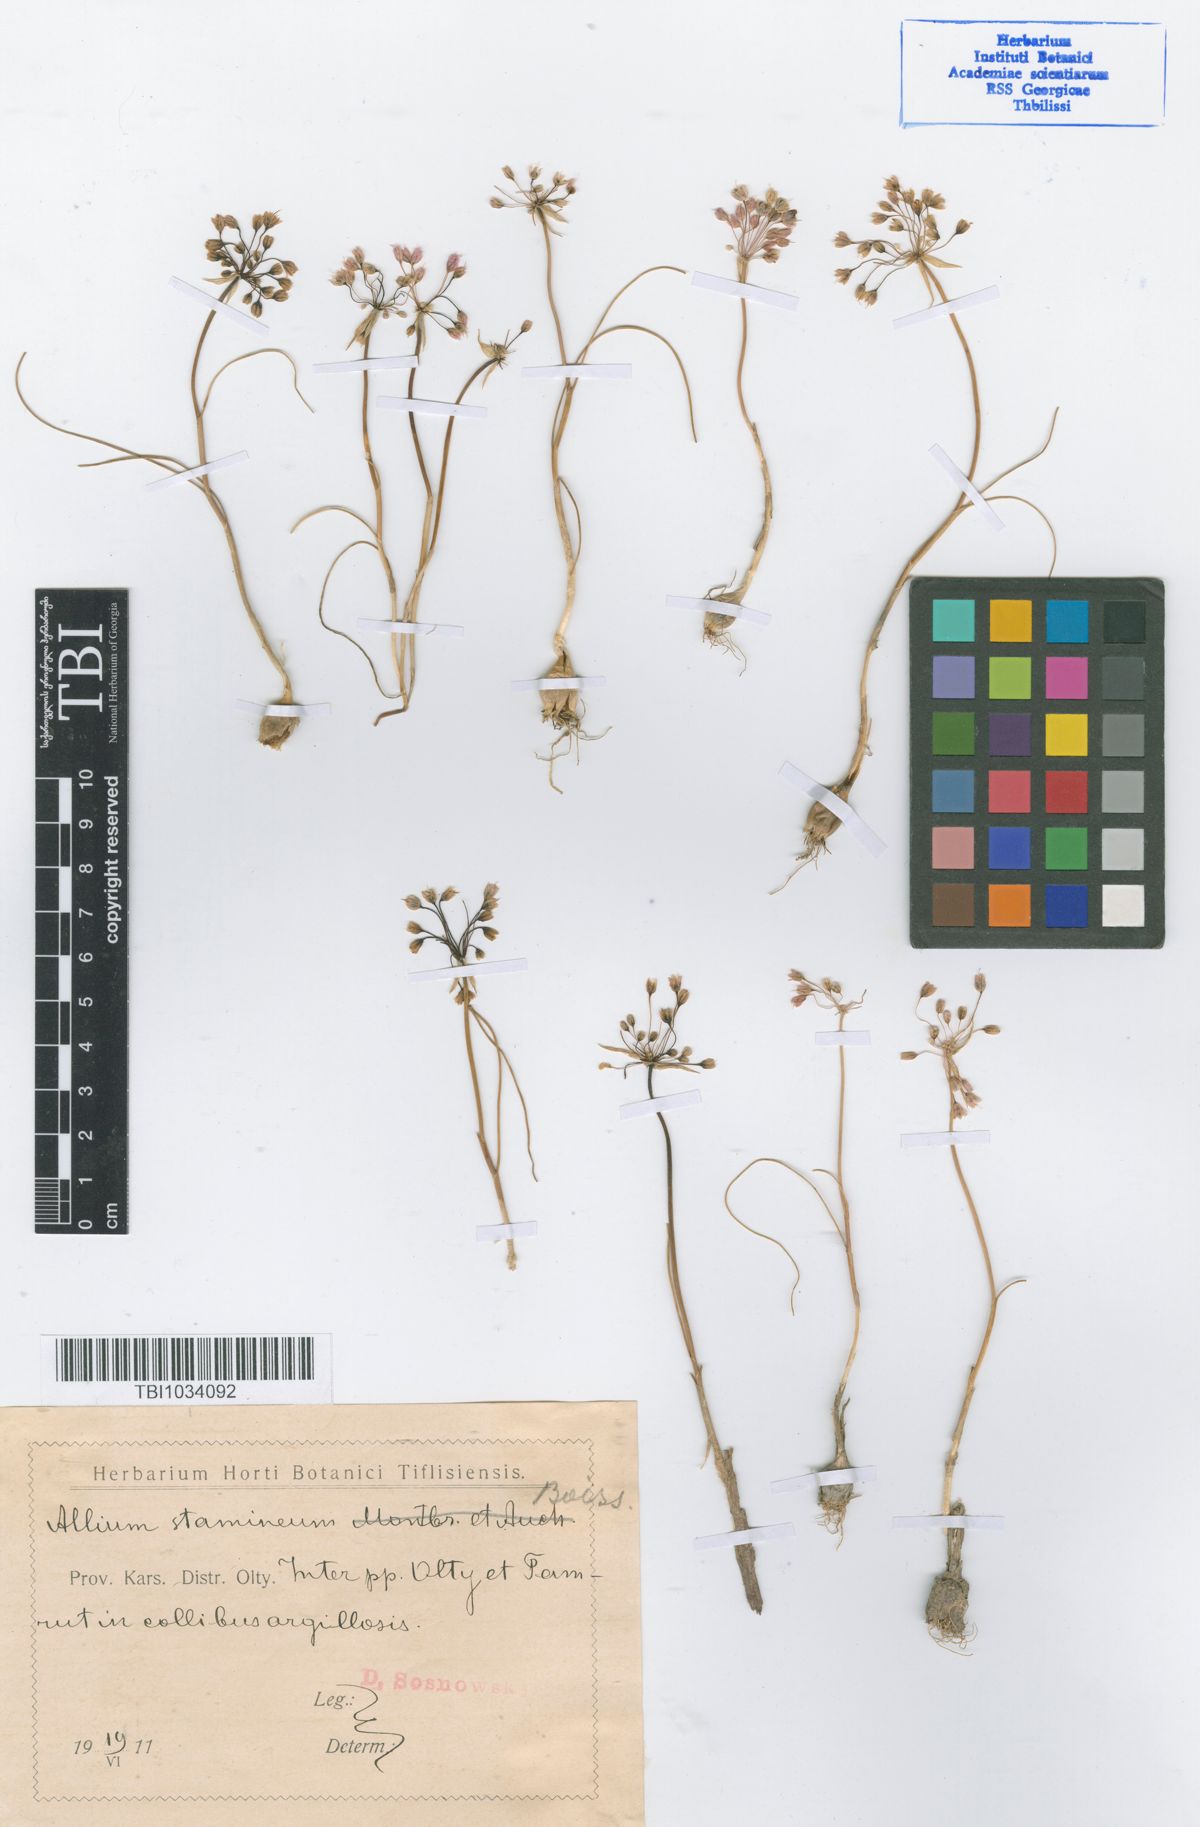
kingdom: Plantae
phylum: Tracheophyta
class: Liliopsida
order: Asparagales
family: Amaryllidaceae
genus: Allium
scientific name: Allium stamineum
